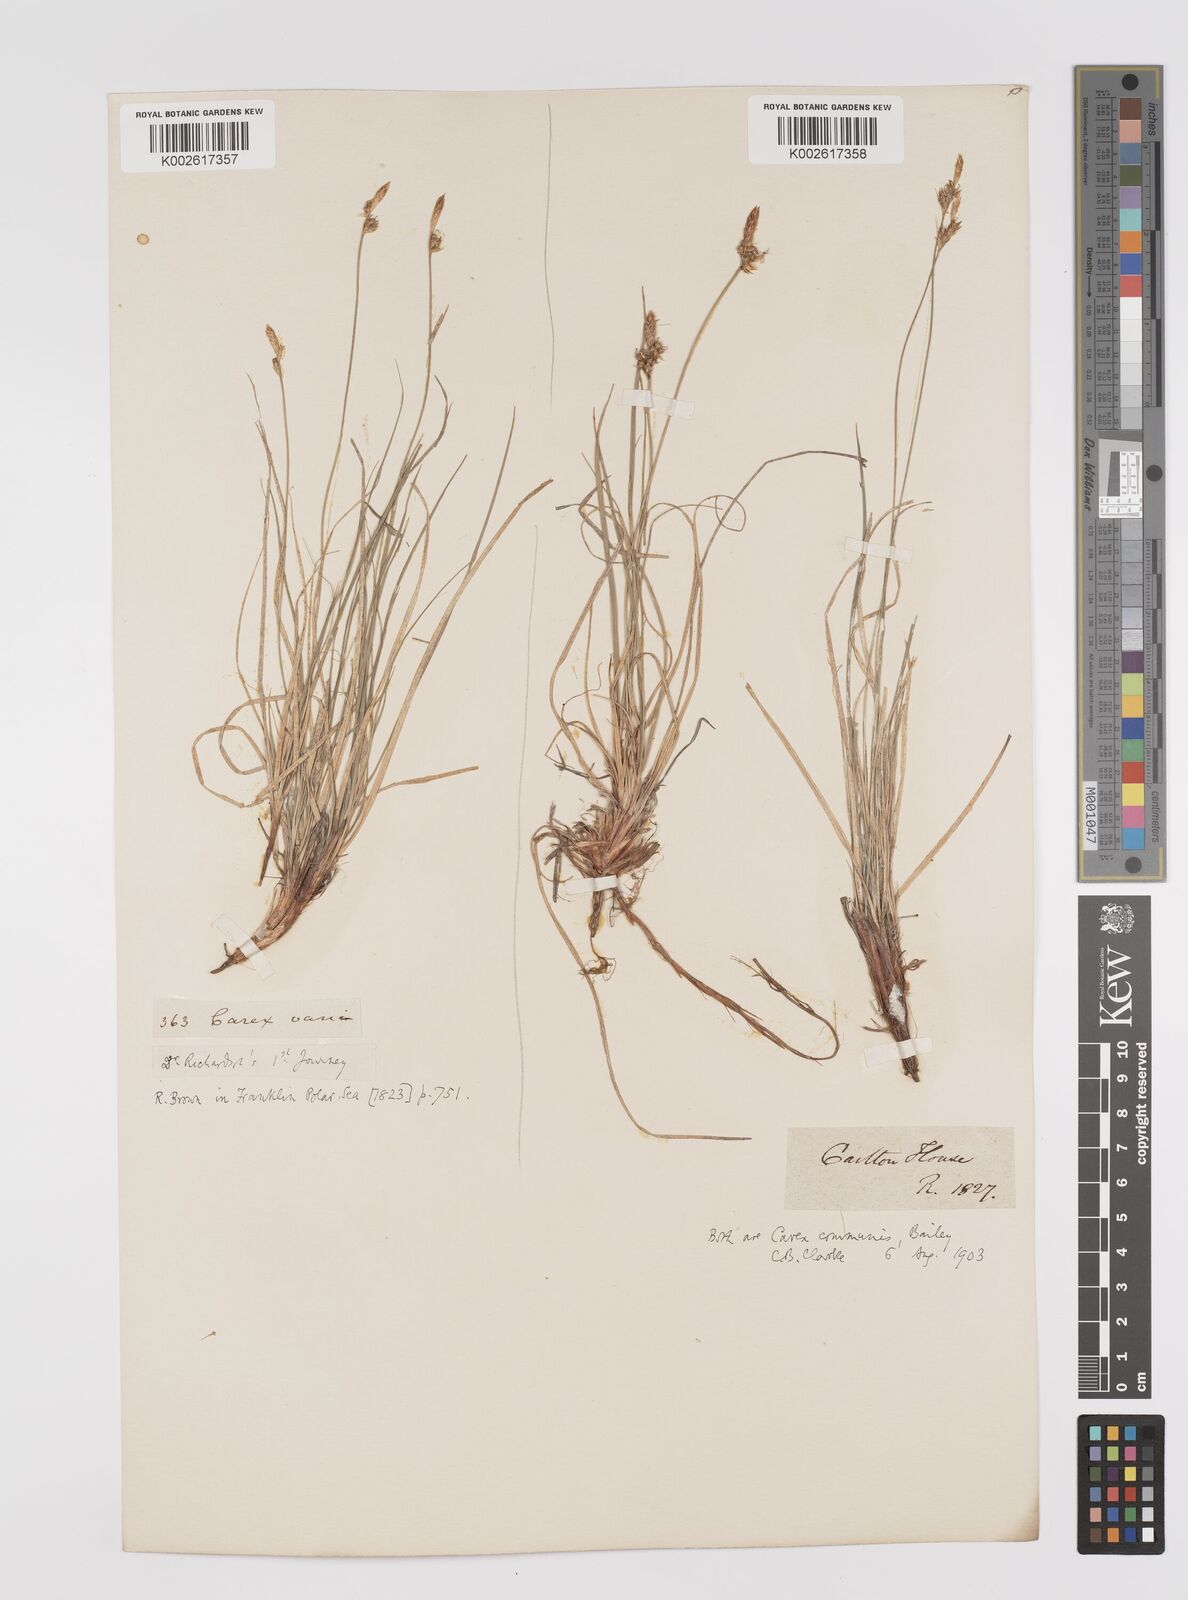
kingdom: Plantae
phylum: Tracheophyta
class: Liliopsida
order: Poales
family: Cyperaceae
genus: Carex
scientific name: Carex communis
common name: Colonial oak sedge
